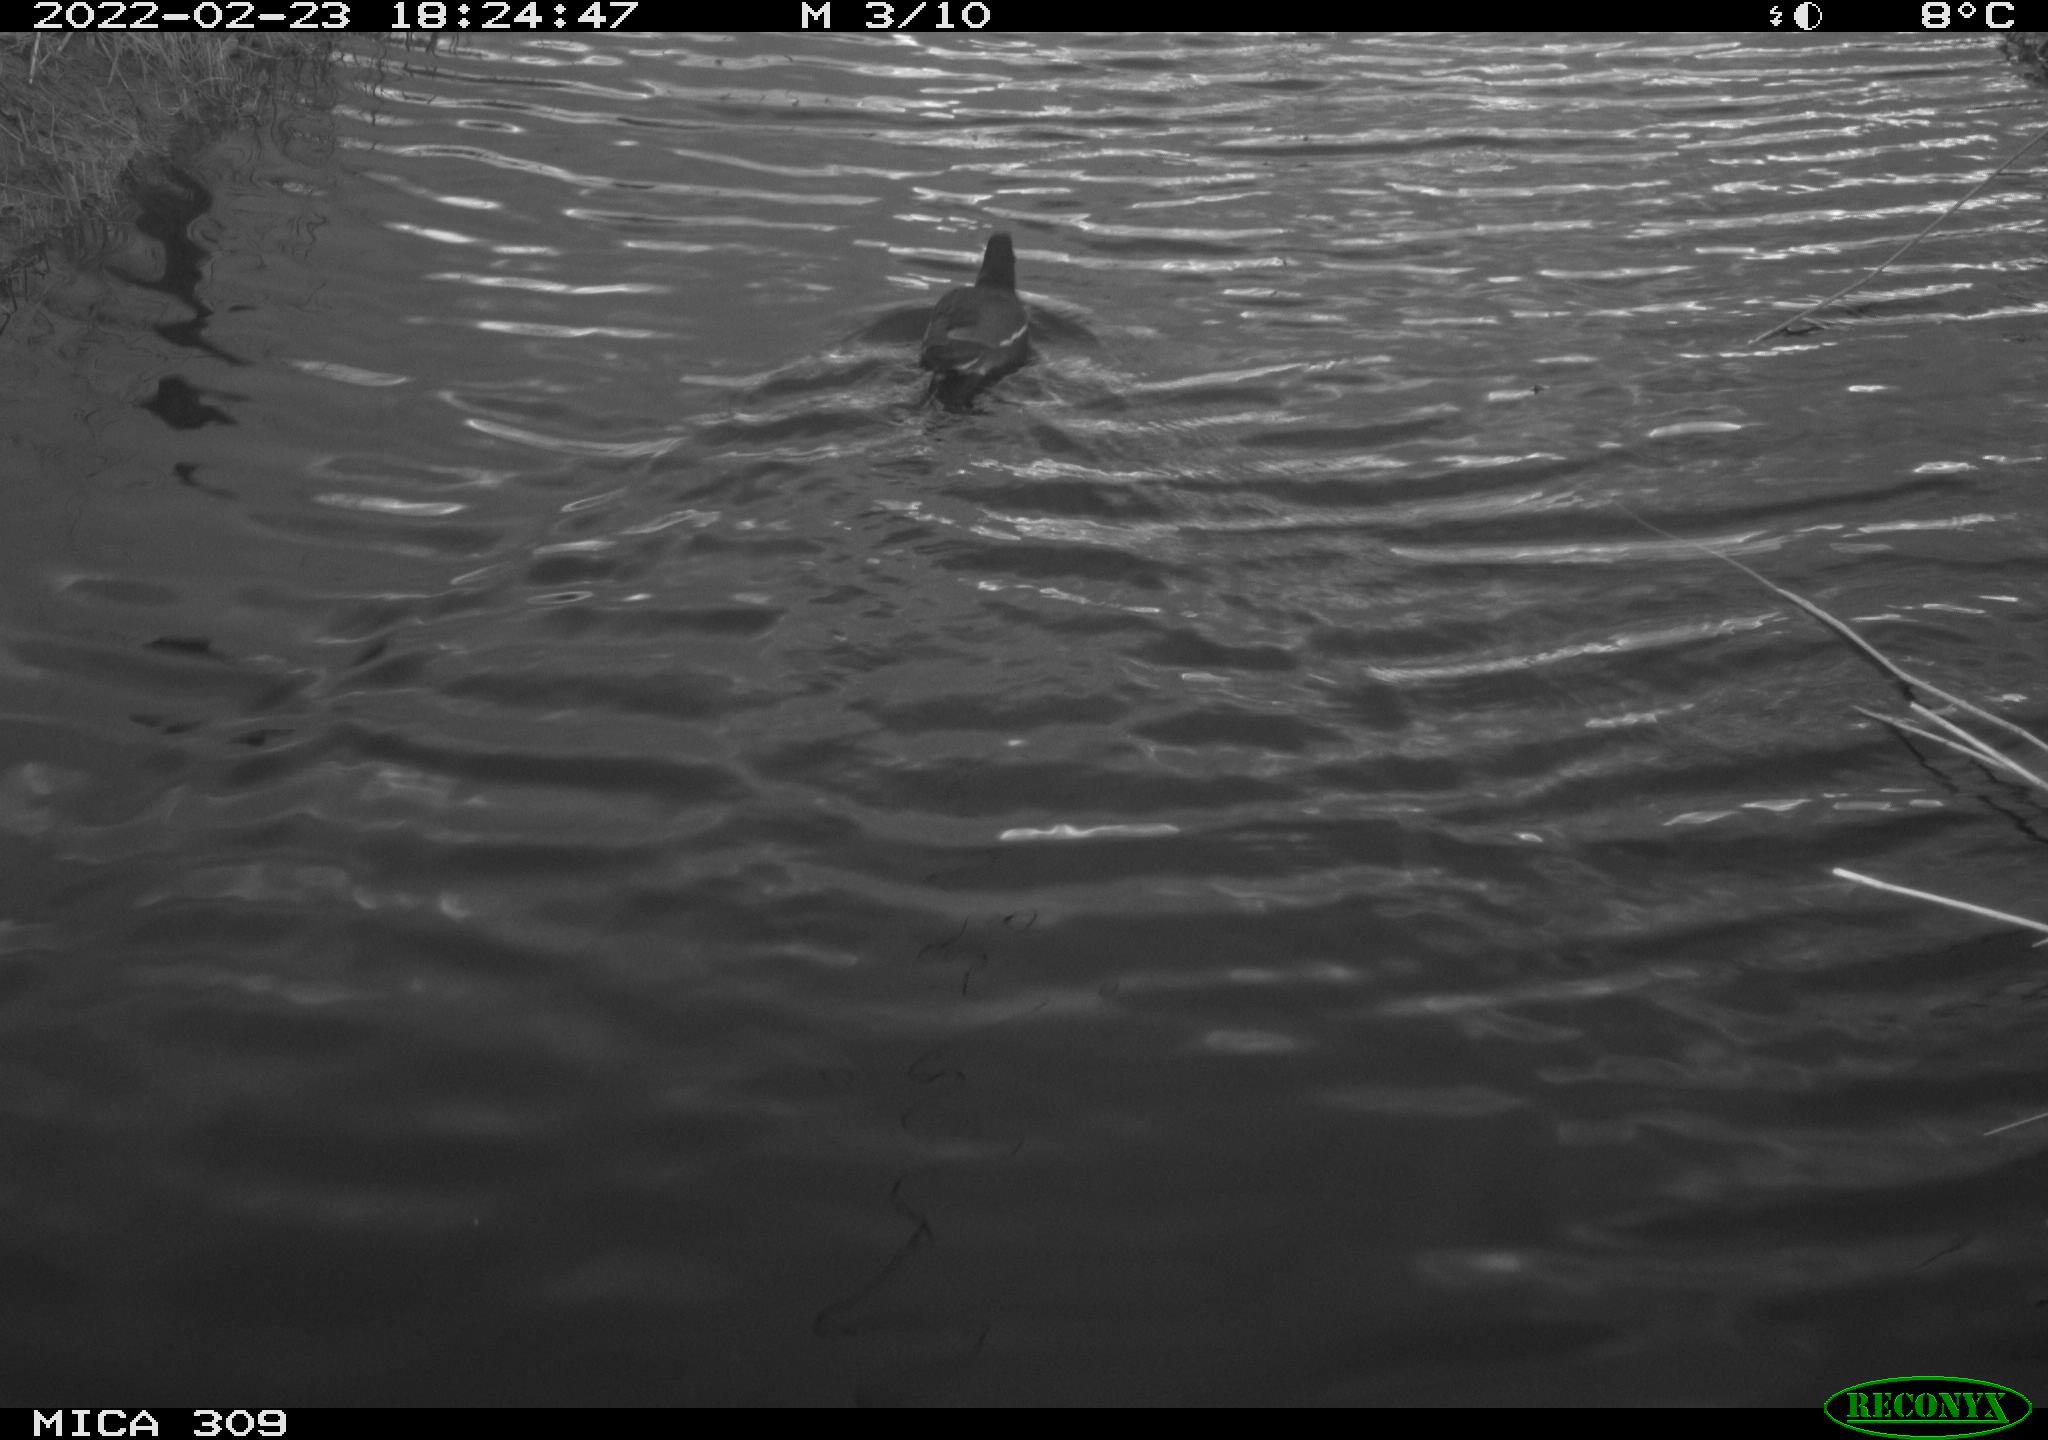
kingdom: Animalia
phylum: Chordata
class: Aves
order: Gruiformes
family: Rallidae
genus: Gallinula
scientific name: Gallinula chloropus
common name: Common moorhen
